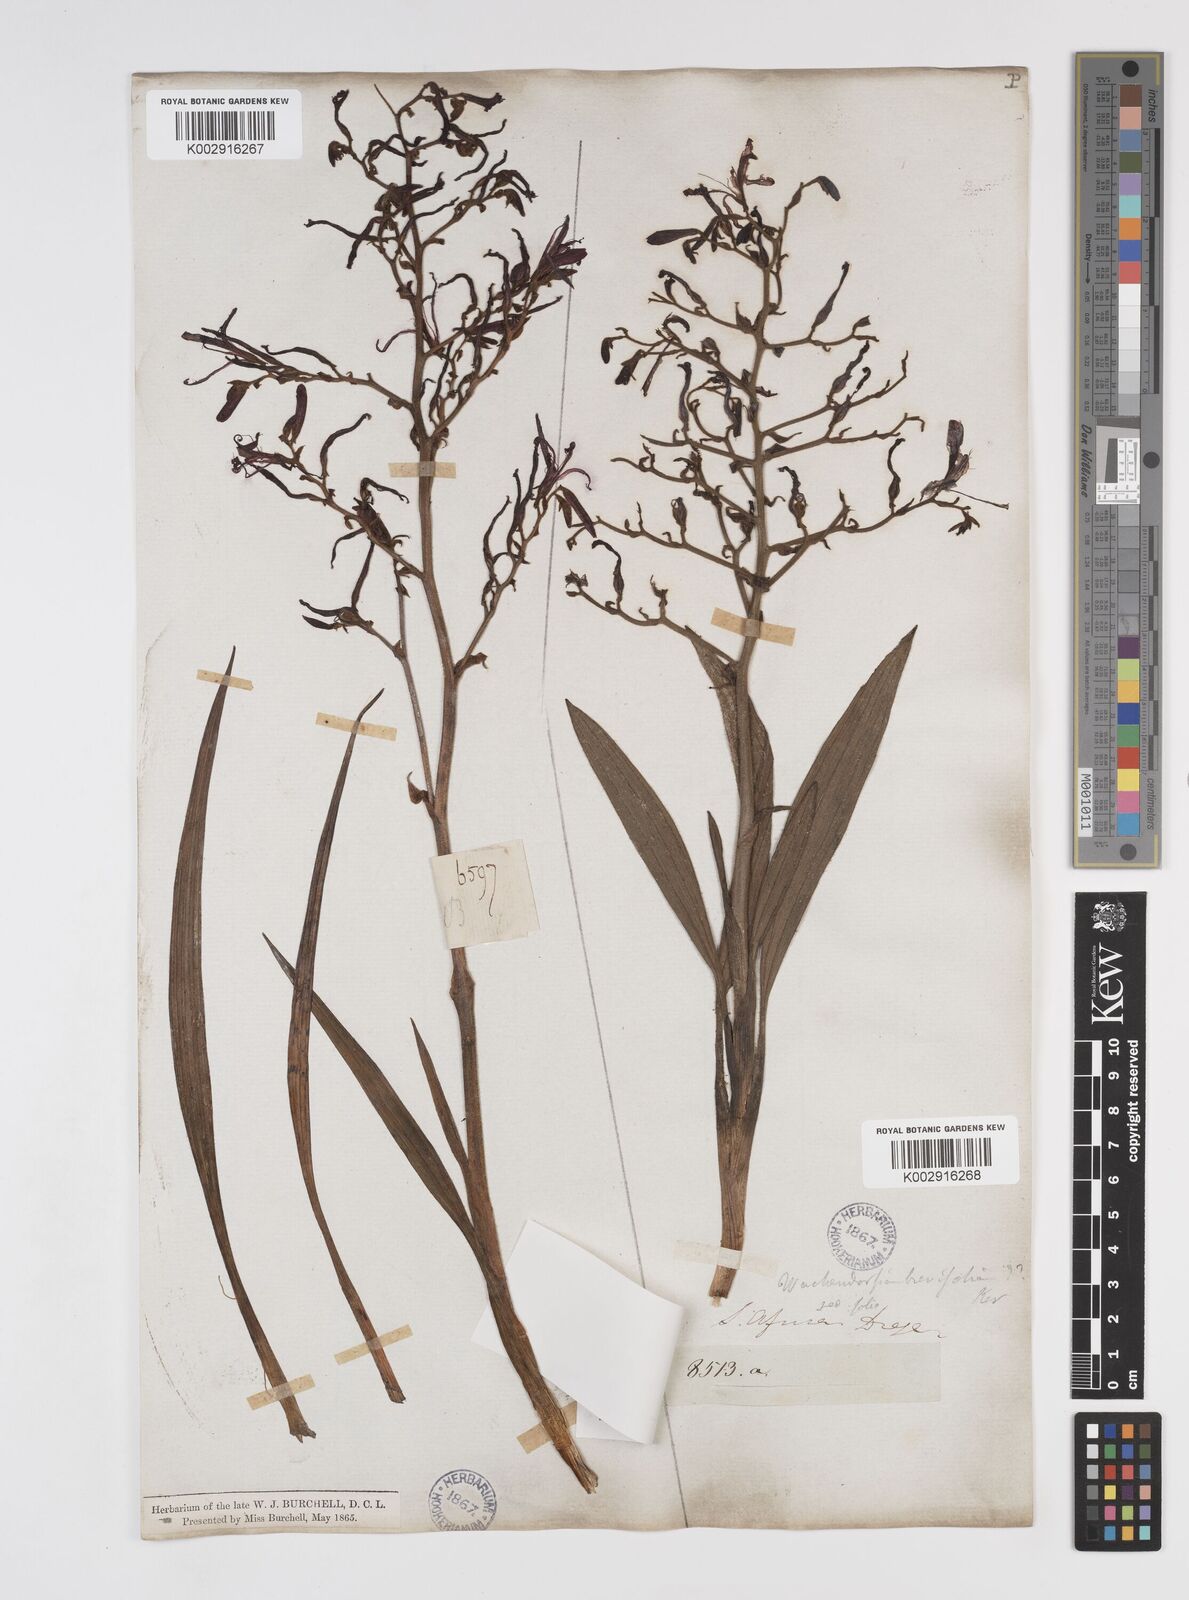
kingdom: Plantae
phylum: Tracheophyta
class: Liliopsida
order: Commelinales
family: Haemodoraceae
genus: Wachendorfia
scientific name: Wachendorfia paniculata
